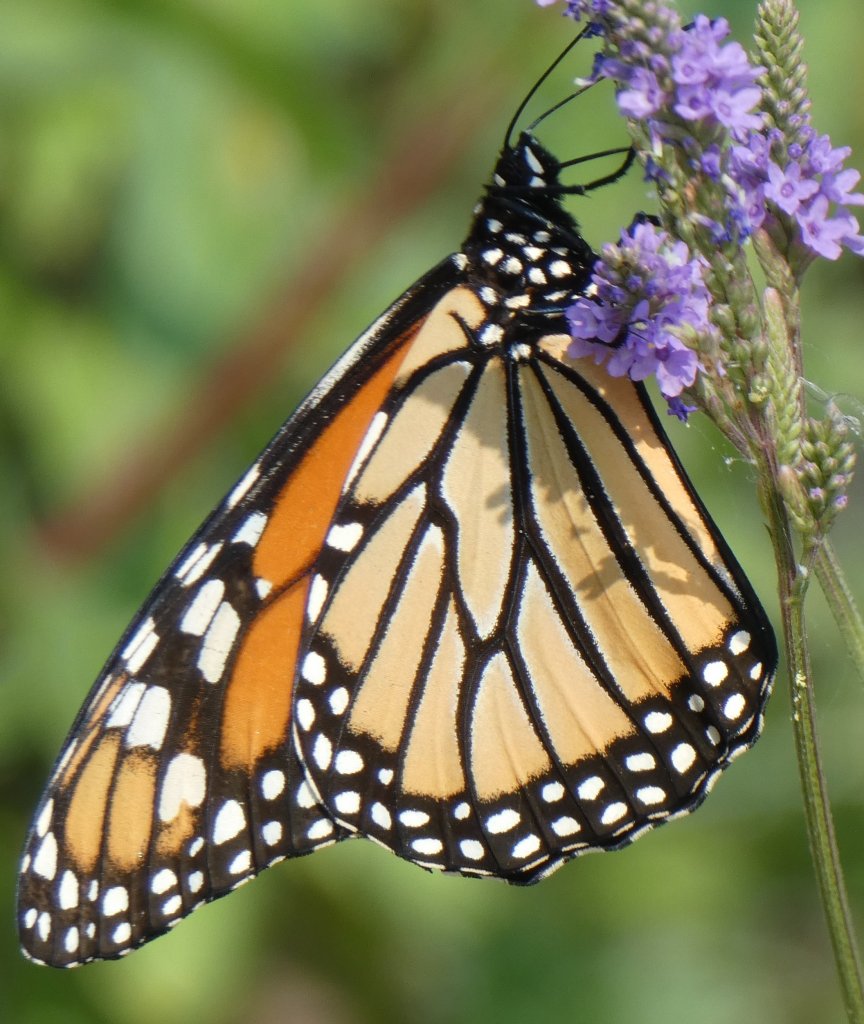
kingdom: Animalia
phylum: Arthropoda
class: Insecta
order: Lepidoptera
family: Nymphalidae
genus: Danaus
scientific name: Danaus plexippus
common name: Monarch
